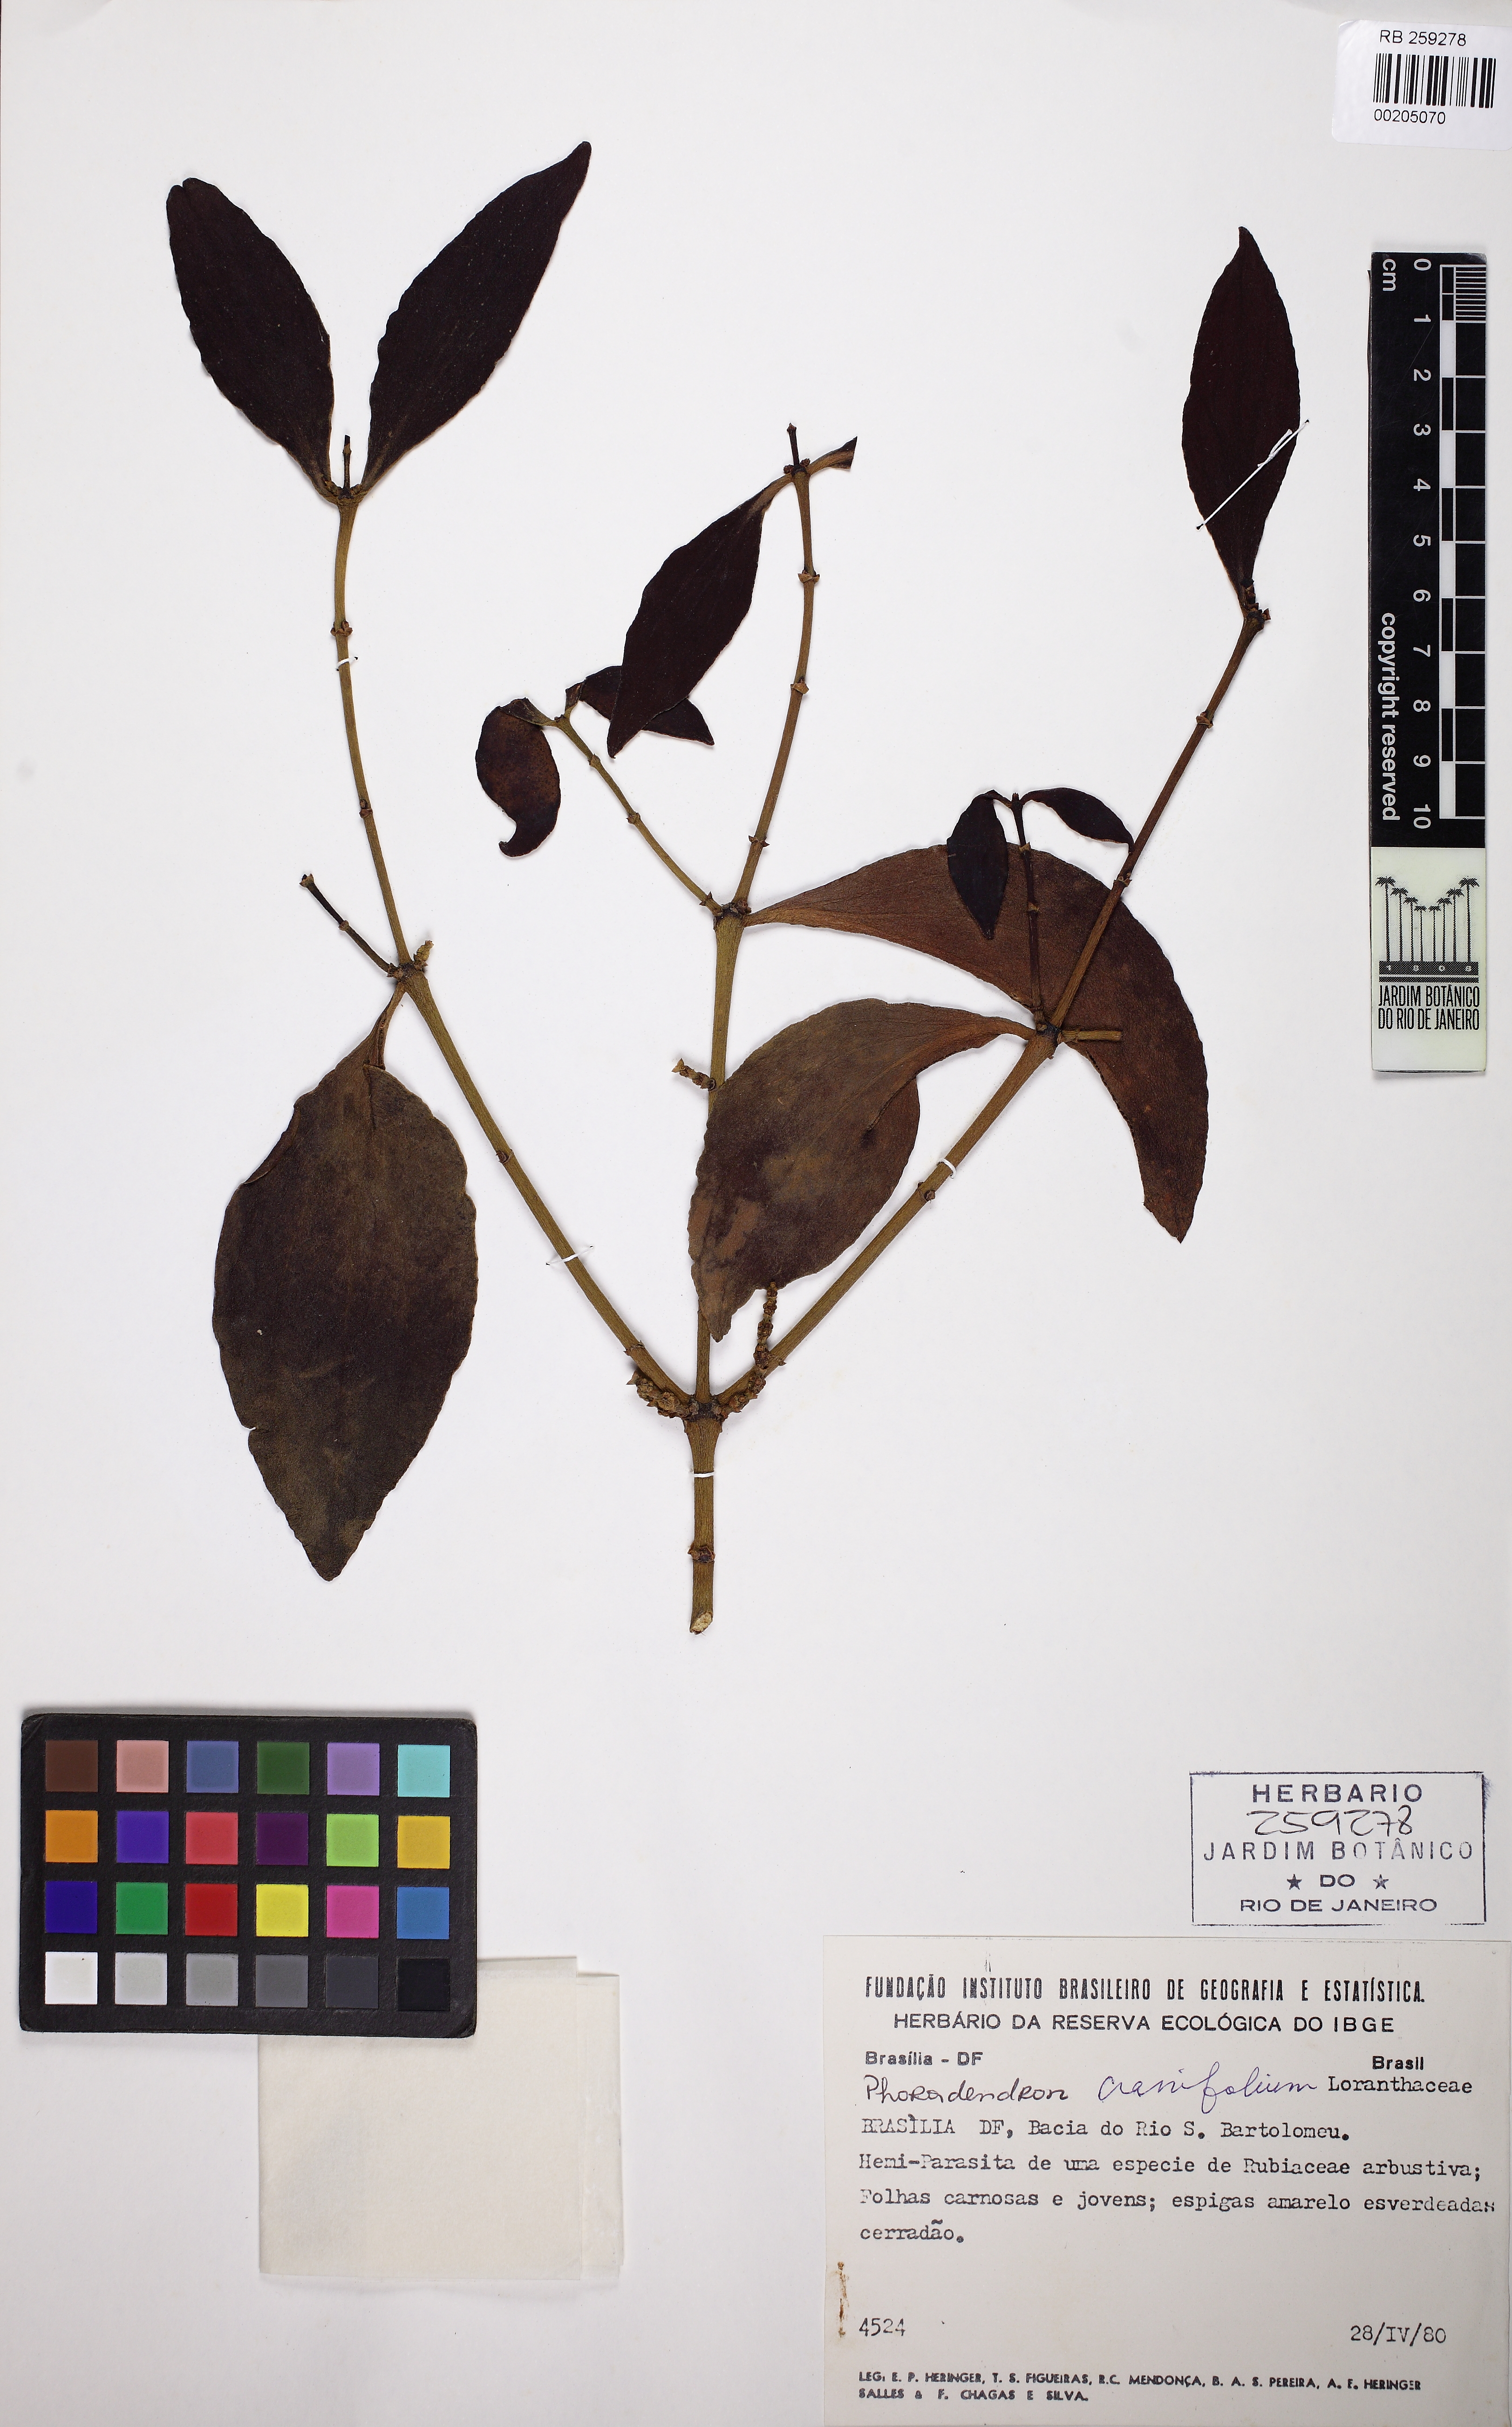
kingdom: Plantae
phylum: Tracheophyta
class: Magnoliopsida
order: Santalales
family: Viscaceae
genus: Phoradendron
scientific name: Phoradendron crassifolium
